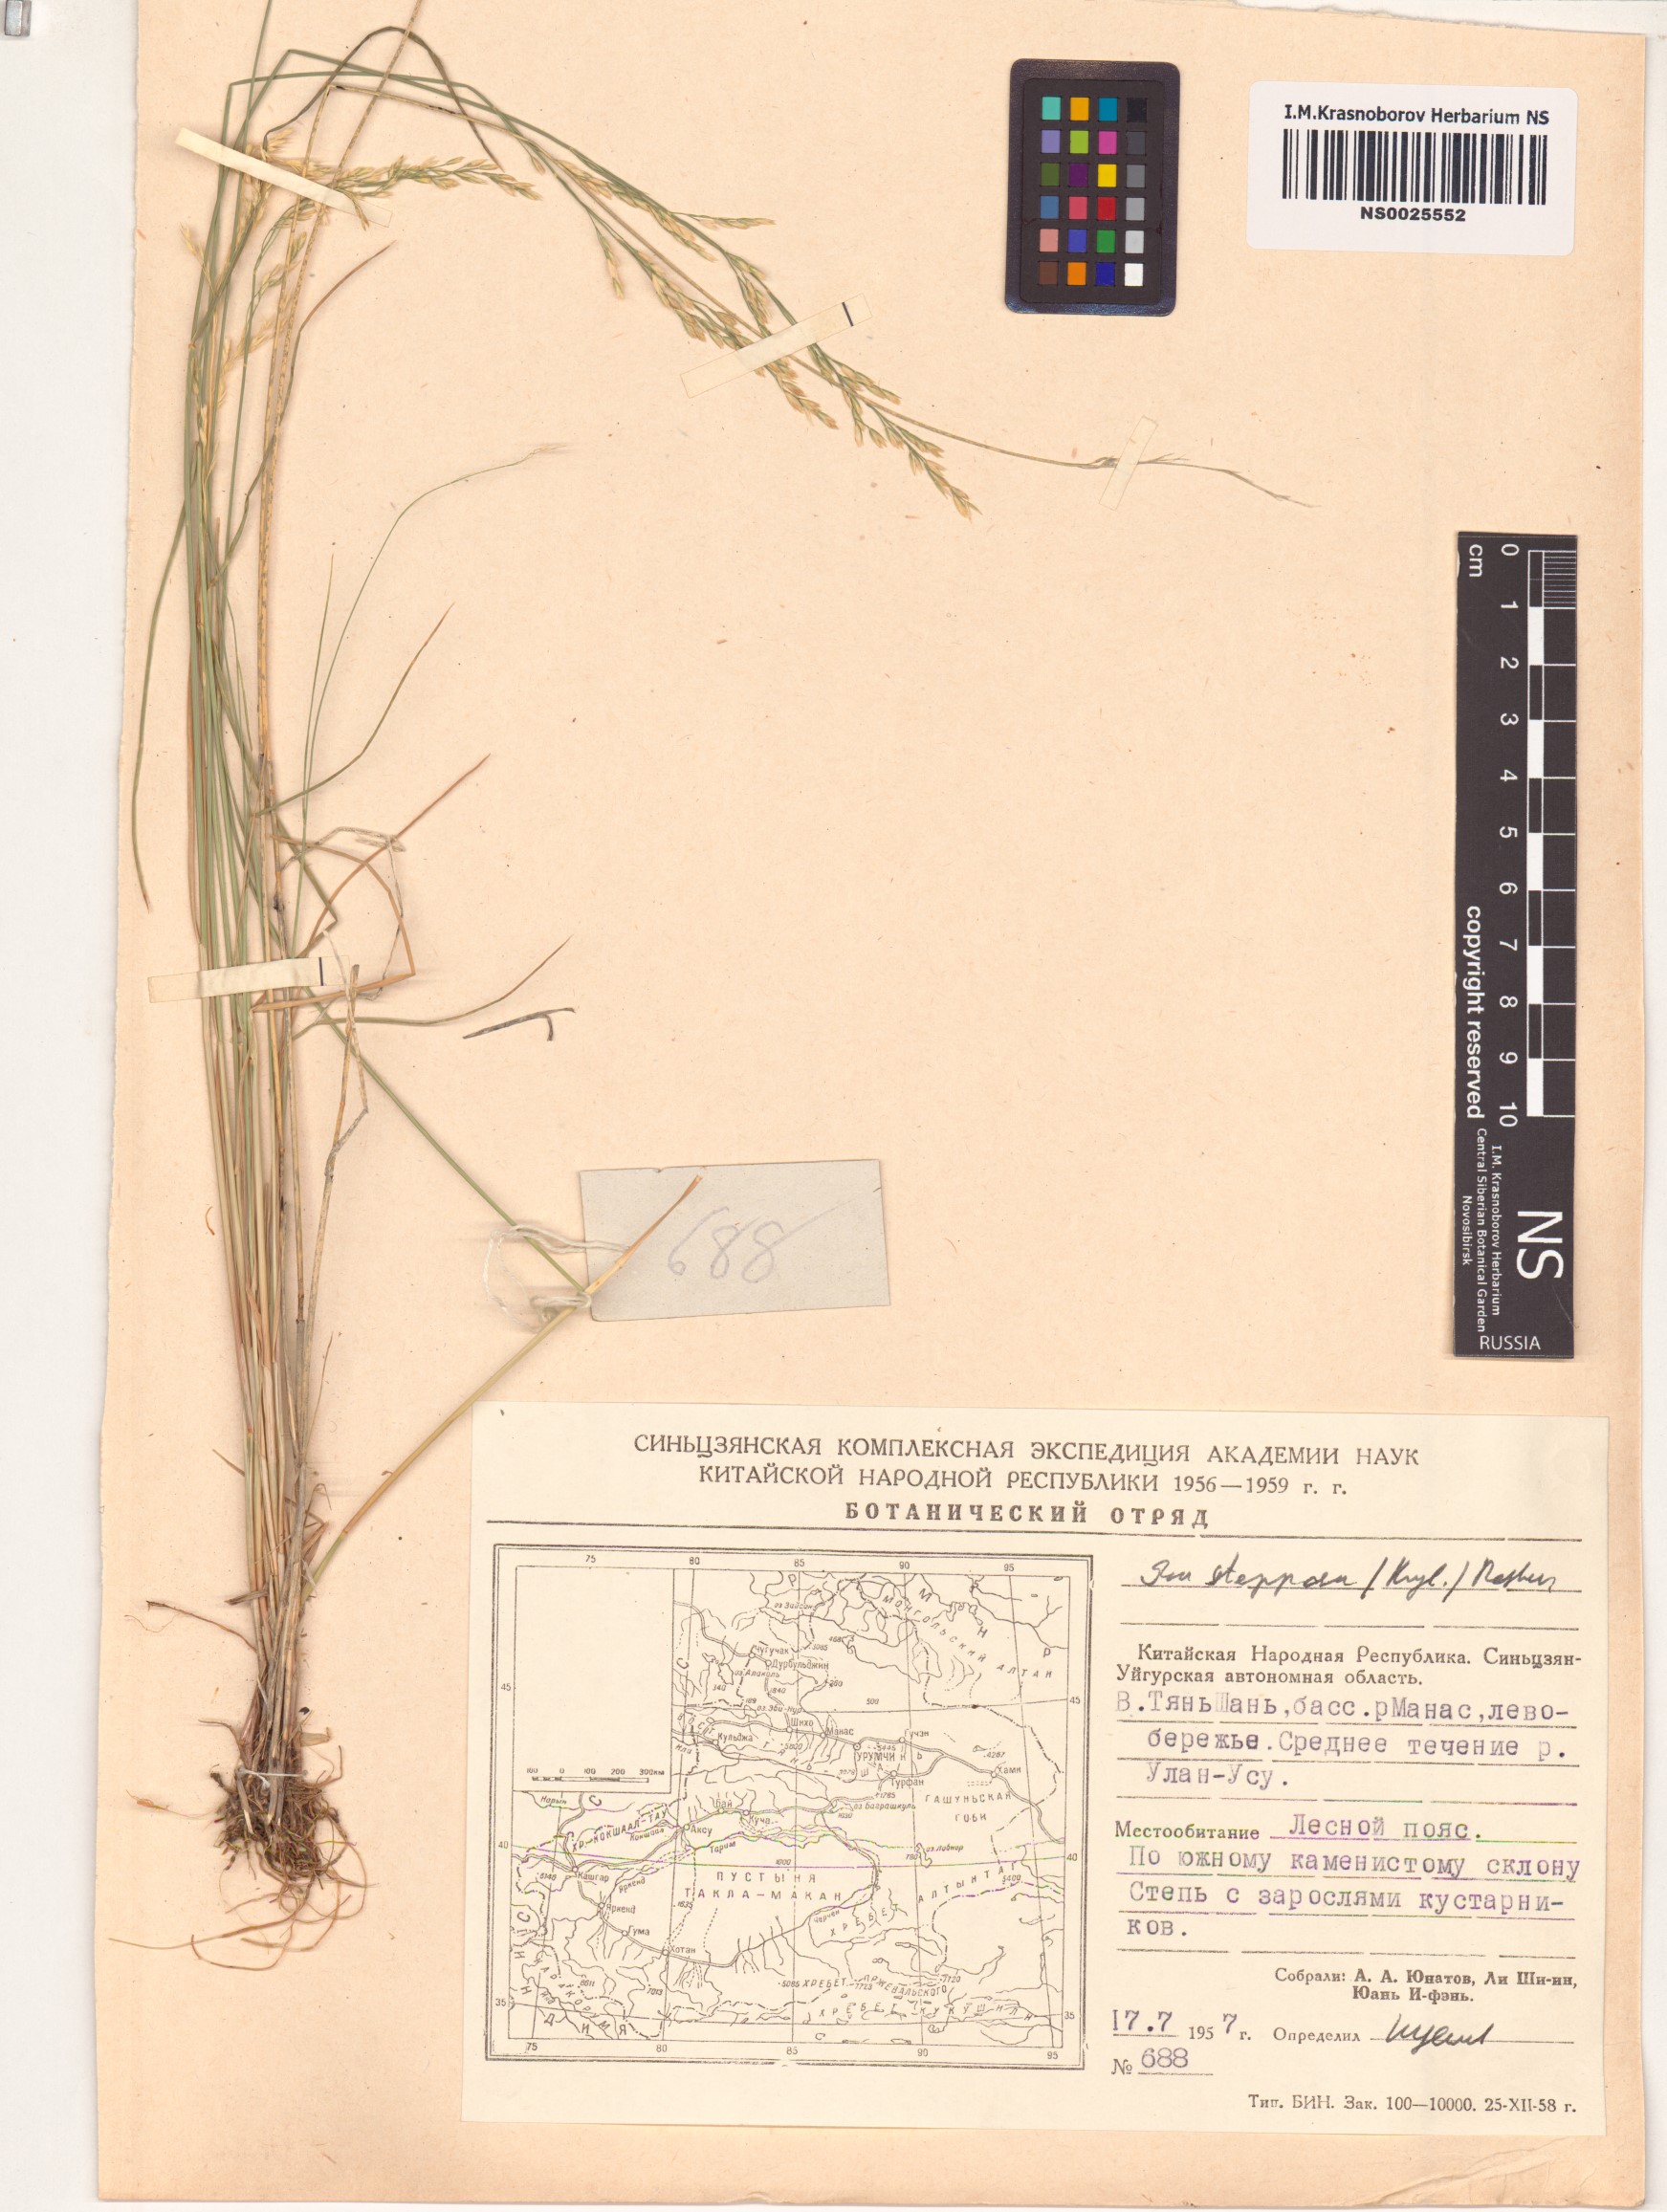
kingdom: Plantae
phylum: Tracheophyta
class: Liliopsida
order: Poales
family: Poaceae
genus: Poa
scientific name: Poa versicolor
